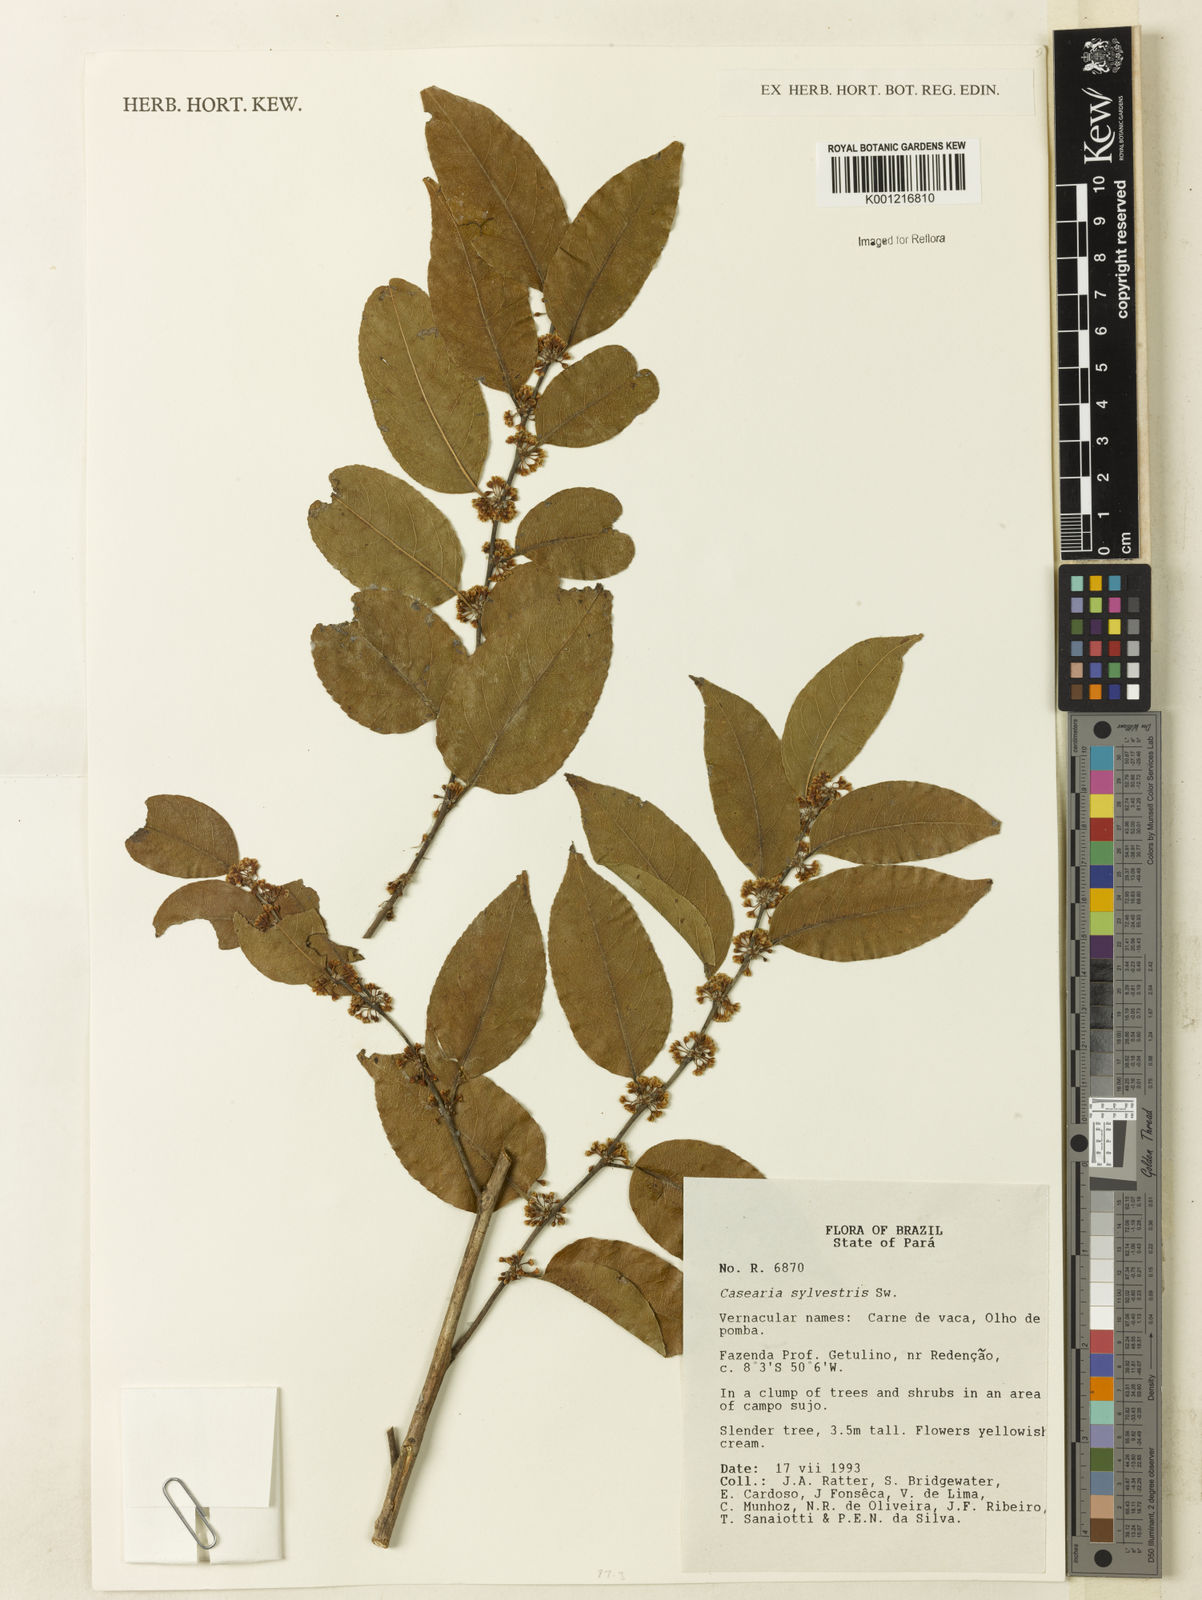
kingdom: Plantae
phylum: Tracheophyta
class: Magnoliopsida
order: Malpighiales
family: Salicaceae
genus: Casearia
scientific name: Casearia sylvestris
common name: Wild sage
